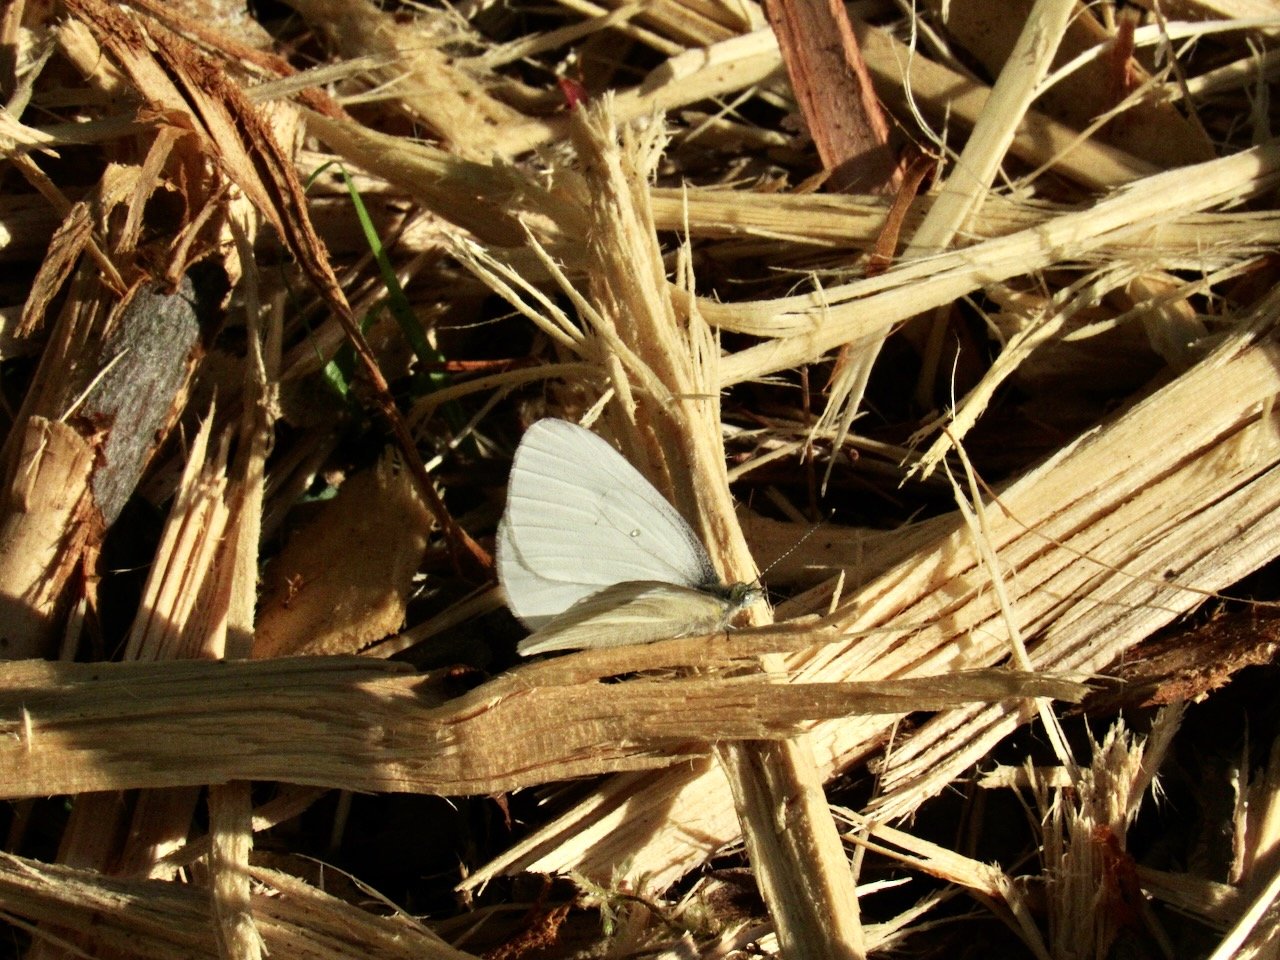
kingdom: Animalia
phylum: Arthropoda
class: Insecta
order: Lepidoptera
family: Pieridae
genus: Pieris
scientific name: Pieris virginiensis
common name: West Virginia White
